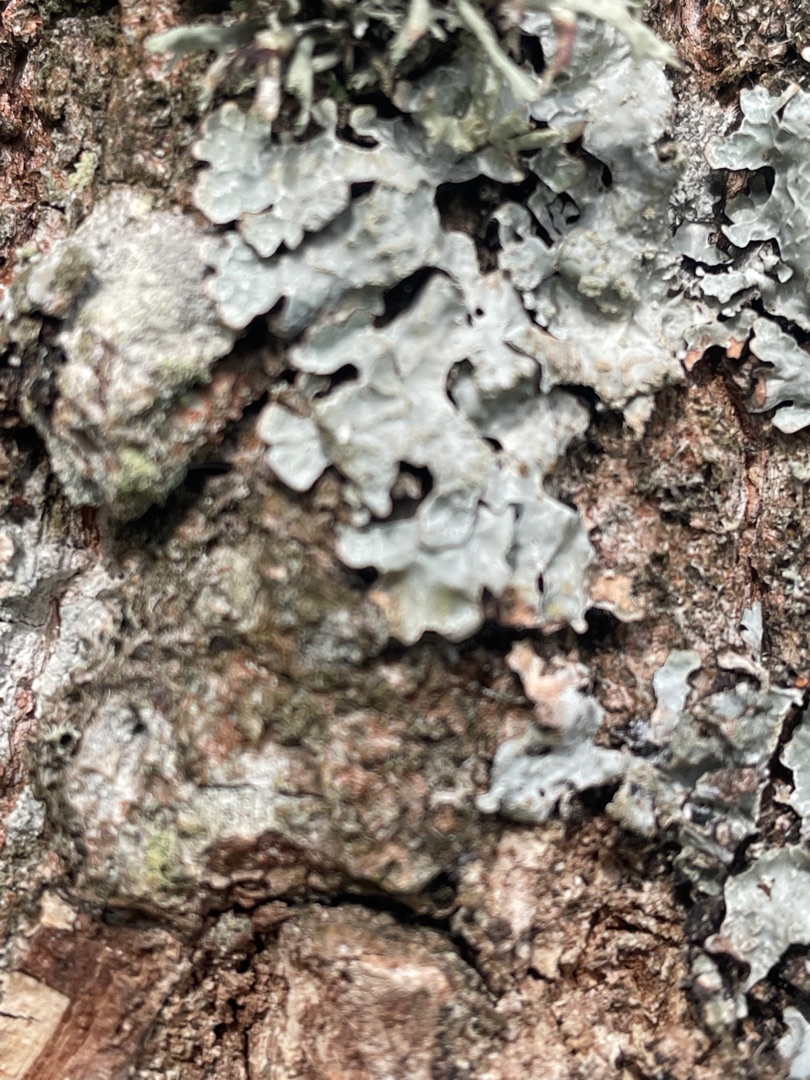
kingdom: Fungi
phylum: Ascomycota
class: Lecanoromycetes
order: Lecanorales
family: Parmeliaceae
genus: Parmelia
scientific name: Parmelia sulcata
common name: Rynket skållav
